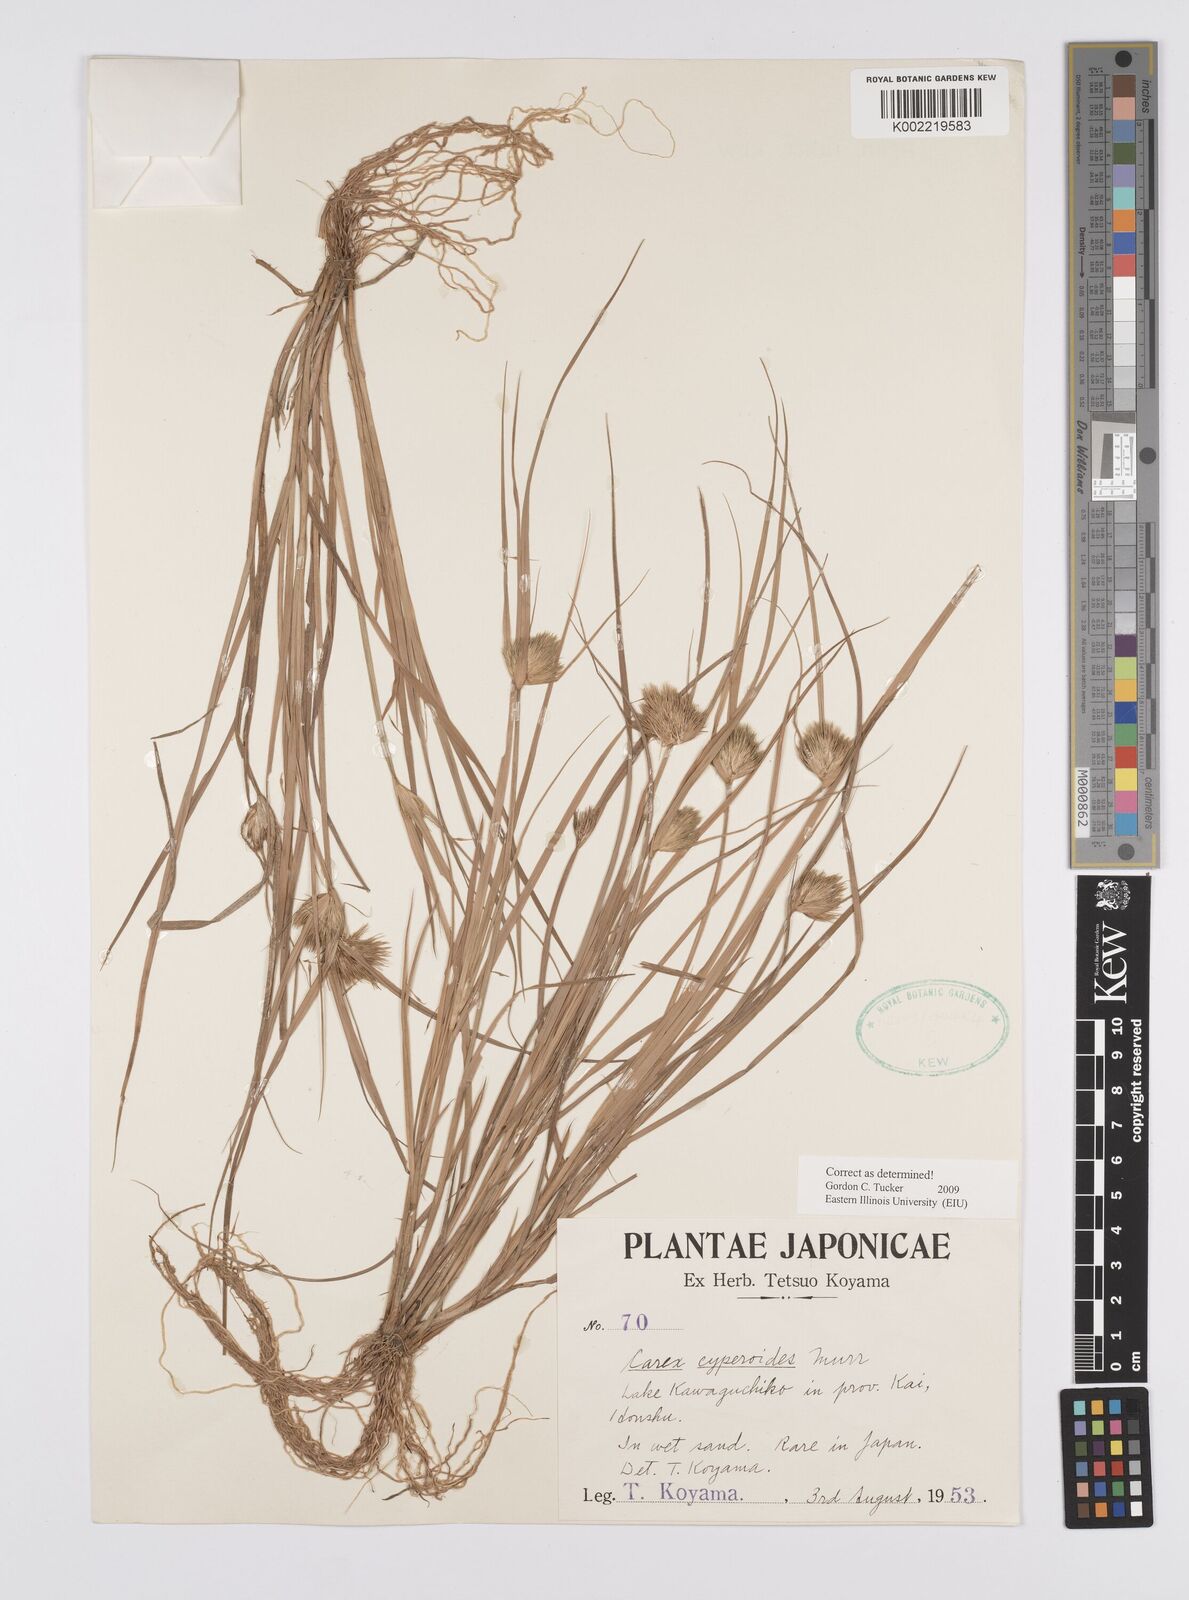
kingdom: Plantae
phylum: Tracheophyta
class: Liliopsida
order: Poales
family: Cyperaceae
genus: Carex
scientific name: Carex bohemica
